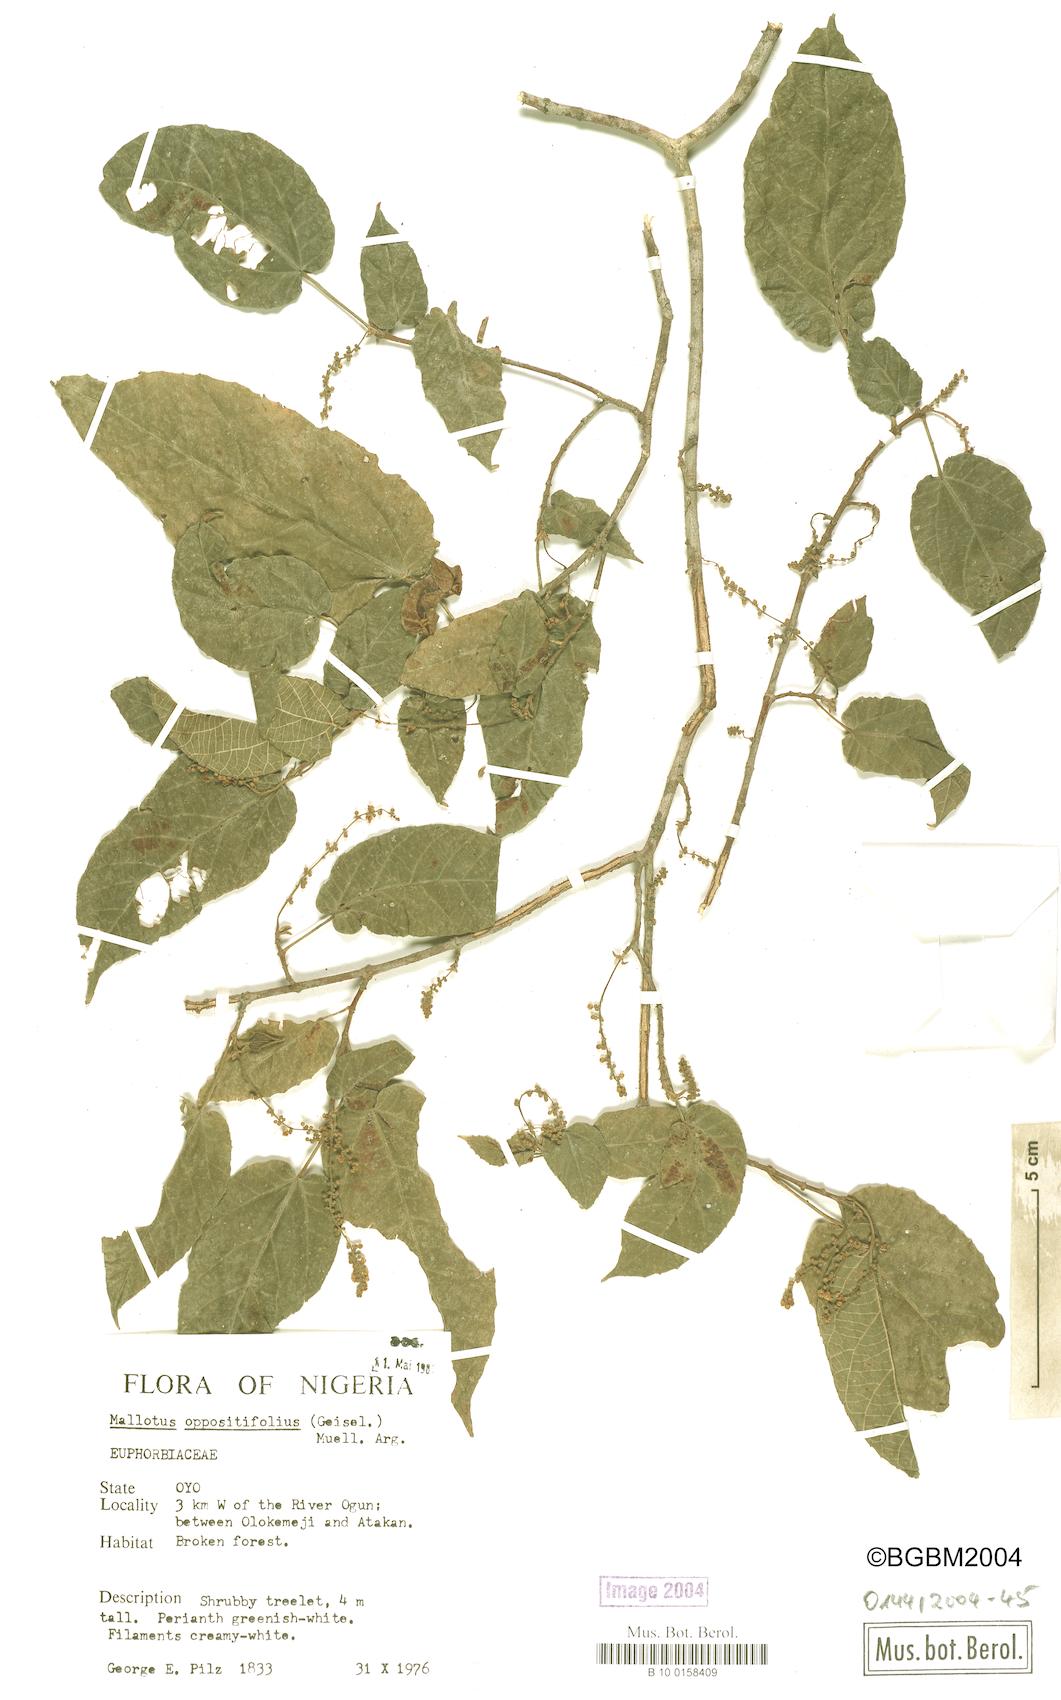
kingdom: Plantae
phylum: Tracheophyta
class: Magnoliopsida
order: Malpighiales
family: Euphorbiaceae
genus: Mallotus
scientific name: Mallotus oppositifolius
